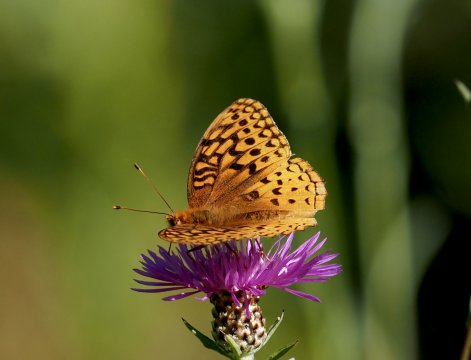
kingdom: Animalia
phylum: Arthropoda
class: Insecta
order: Lepidoptera
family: Nymphalidae
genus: Speyeria
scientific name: Speyeria cybele
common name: Great Spangled Fritillary
